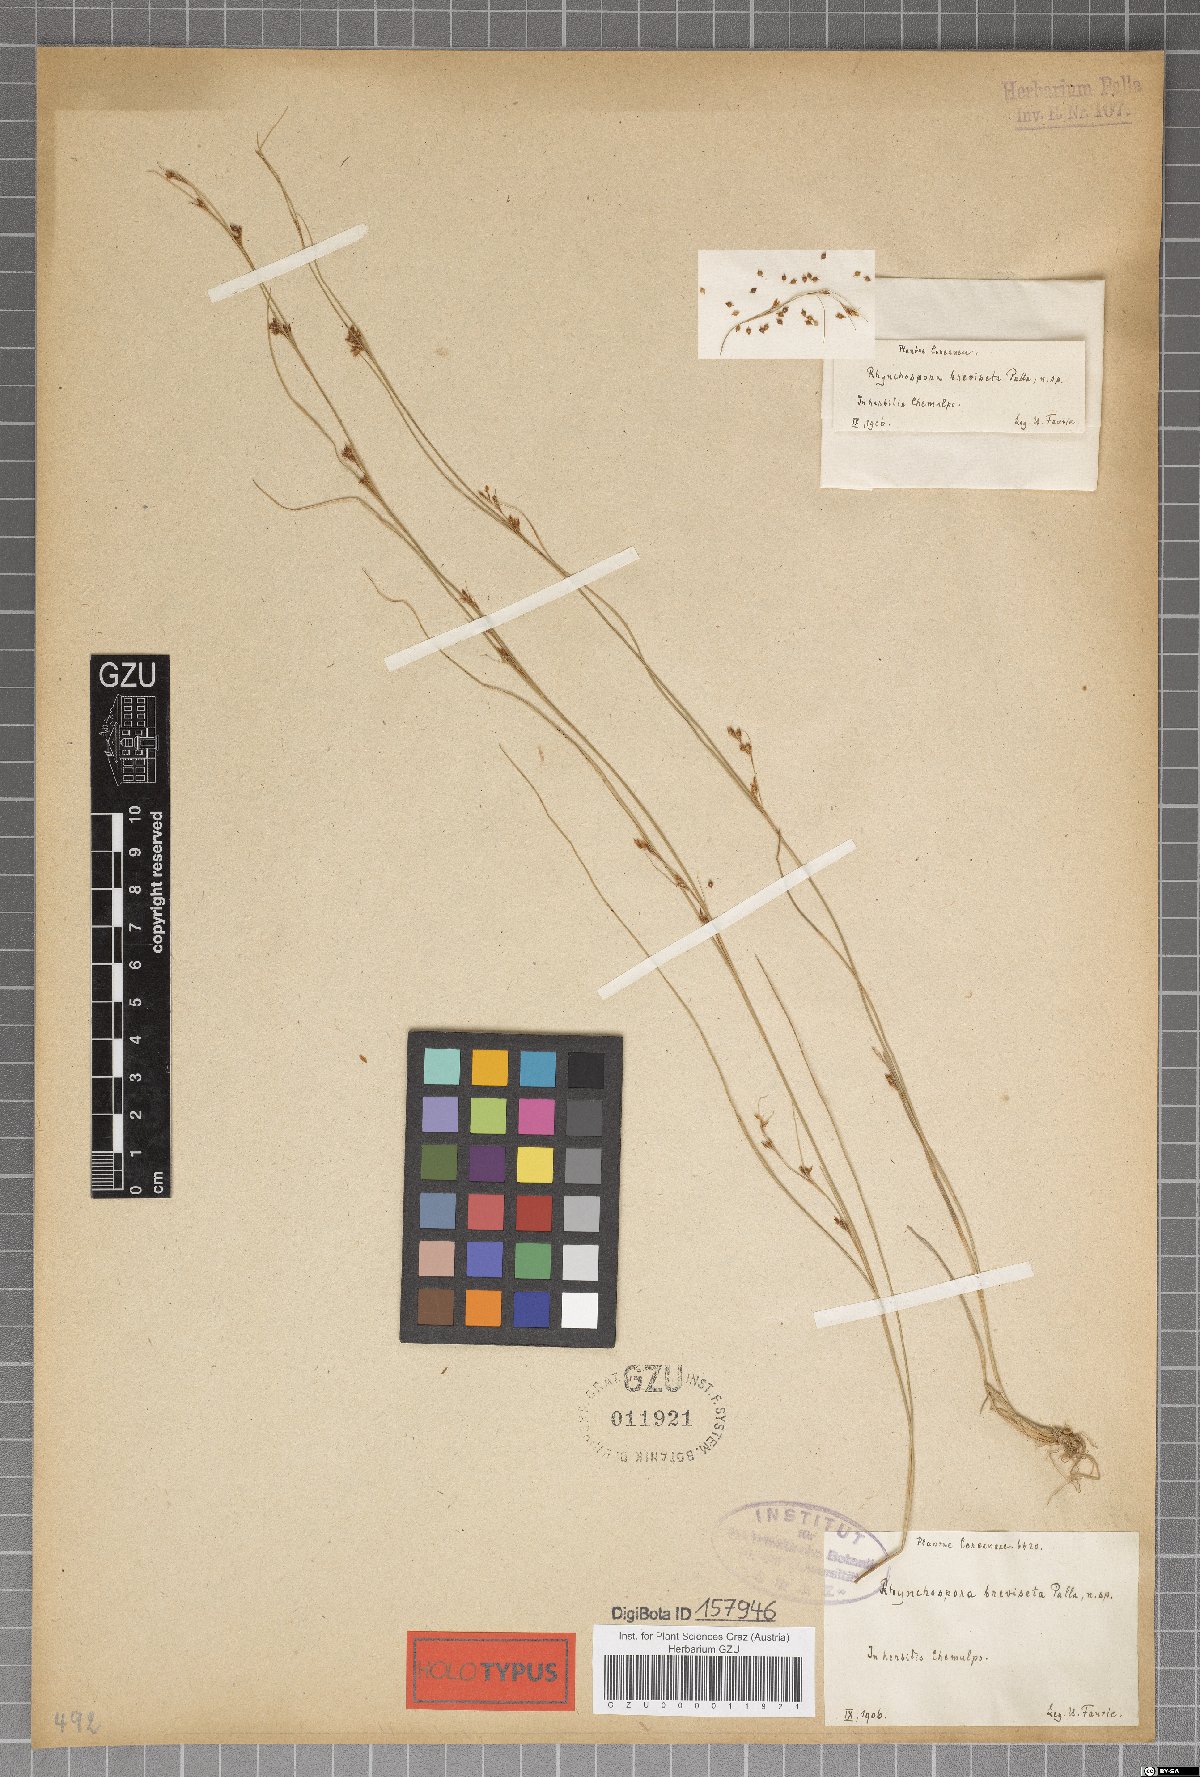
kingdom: Plantae
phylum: Tracheophyta
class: Liliopsida
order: Poales
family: Cyperaceae
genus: Rhynchospora
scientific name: Rhynchospora faberi
